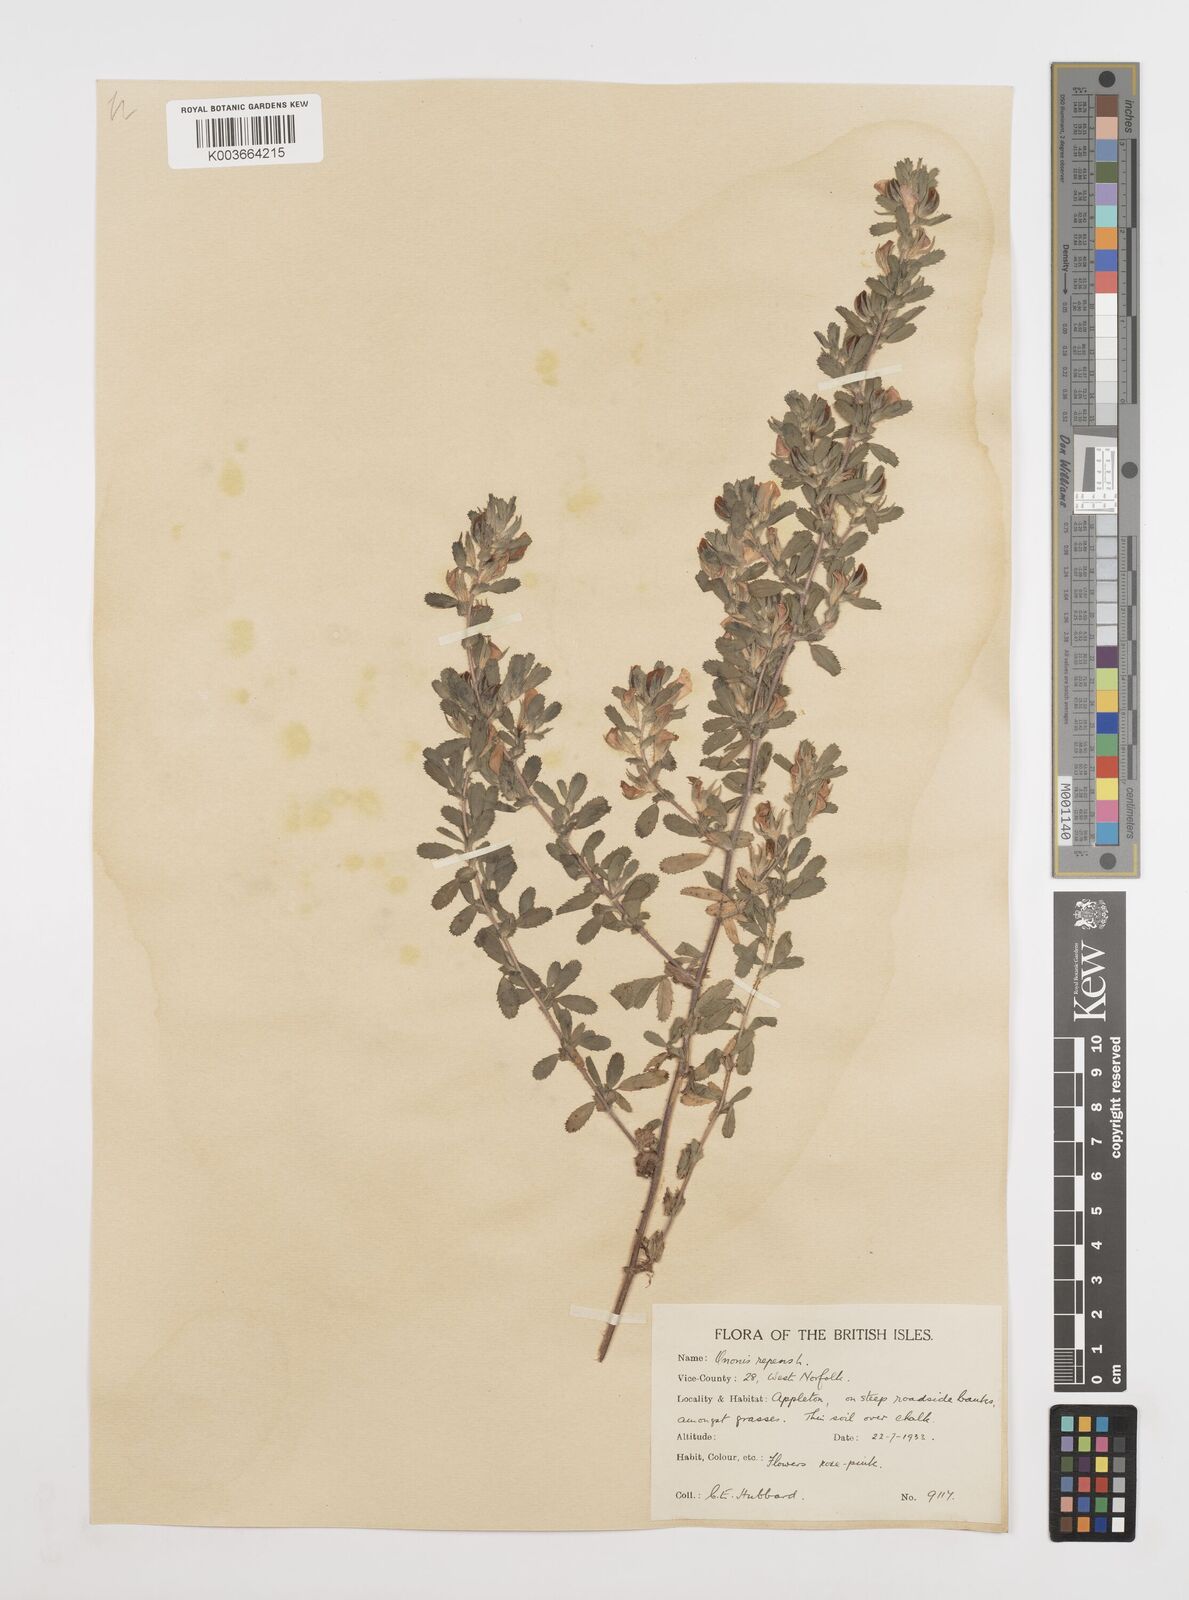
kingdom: Plantae
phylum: Tracheophyta
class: Magnoliopsida
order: Fabales
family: Fabaceae
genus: Ononis
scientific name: Ononis spinosa
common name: Spiny restharrow
